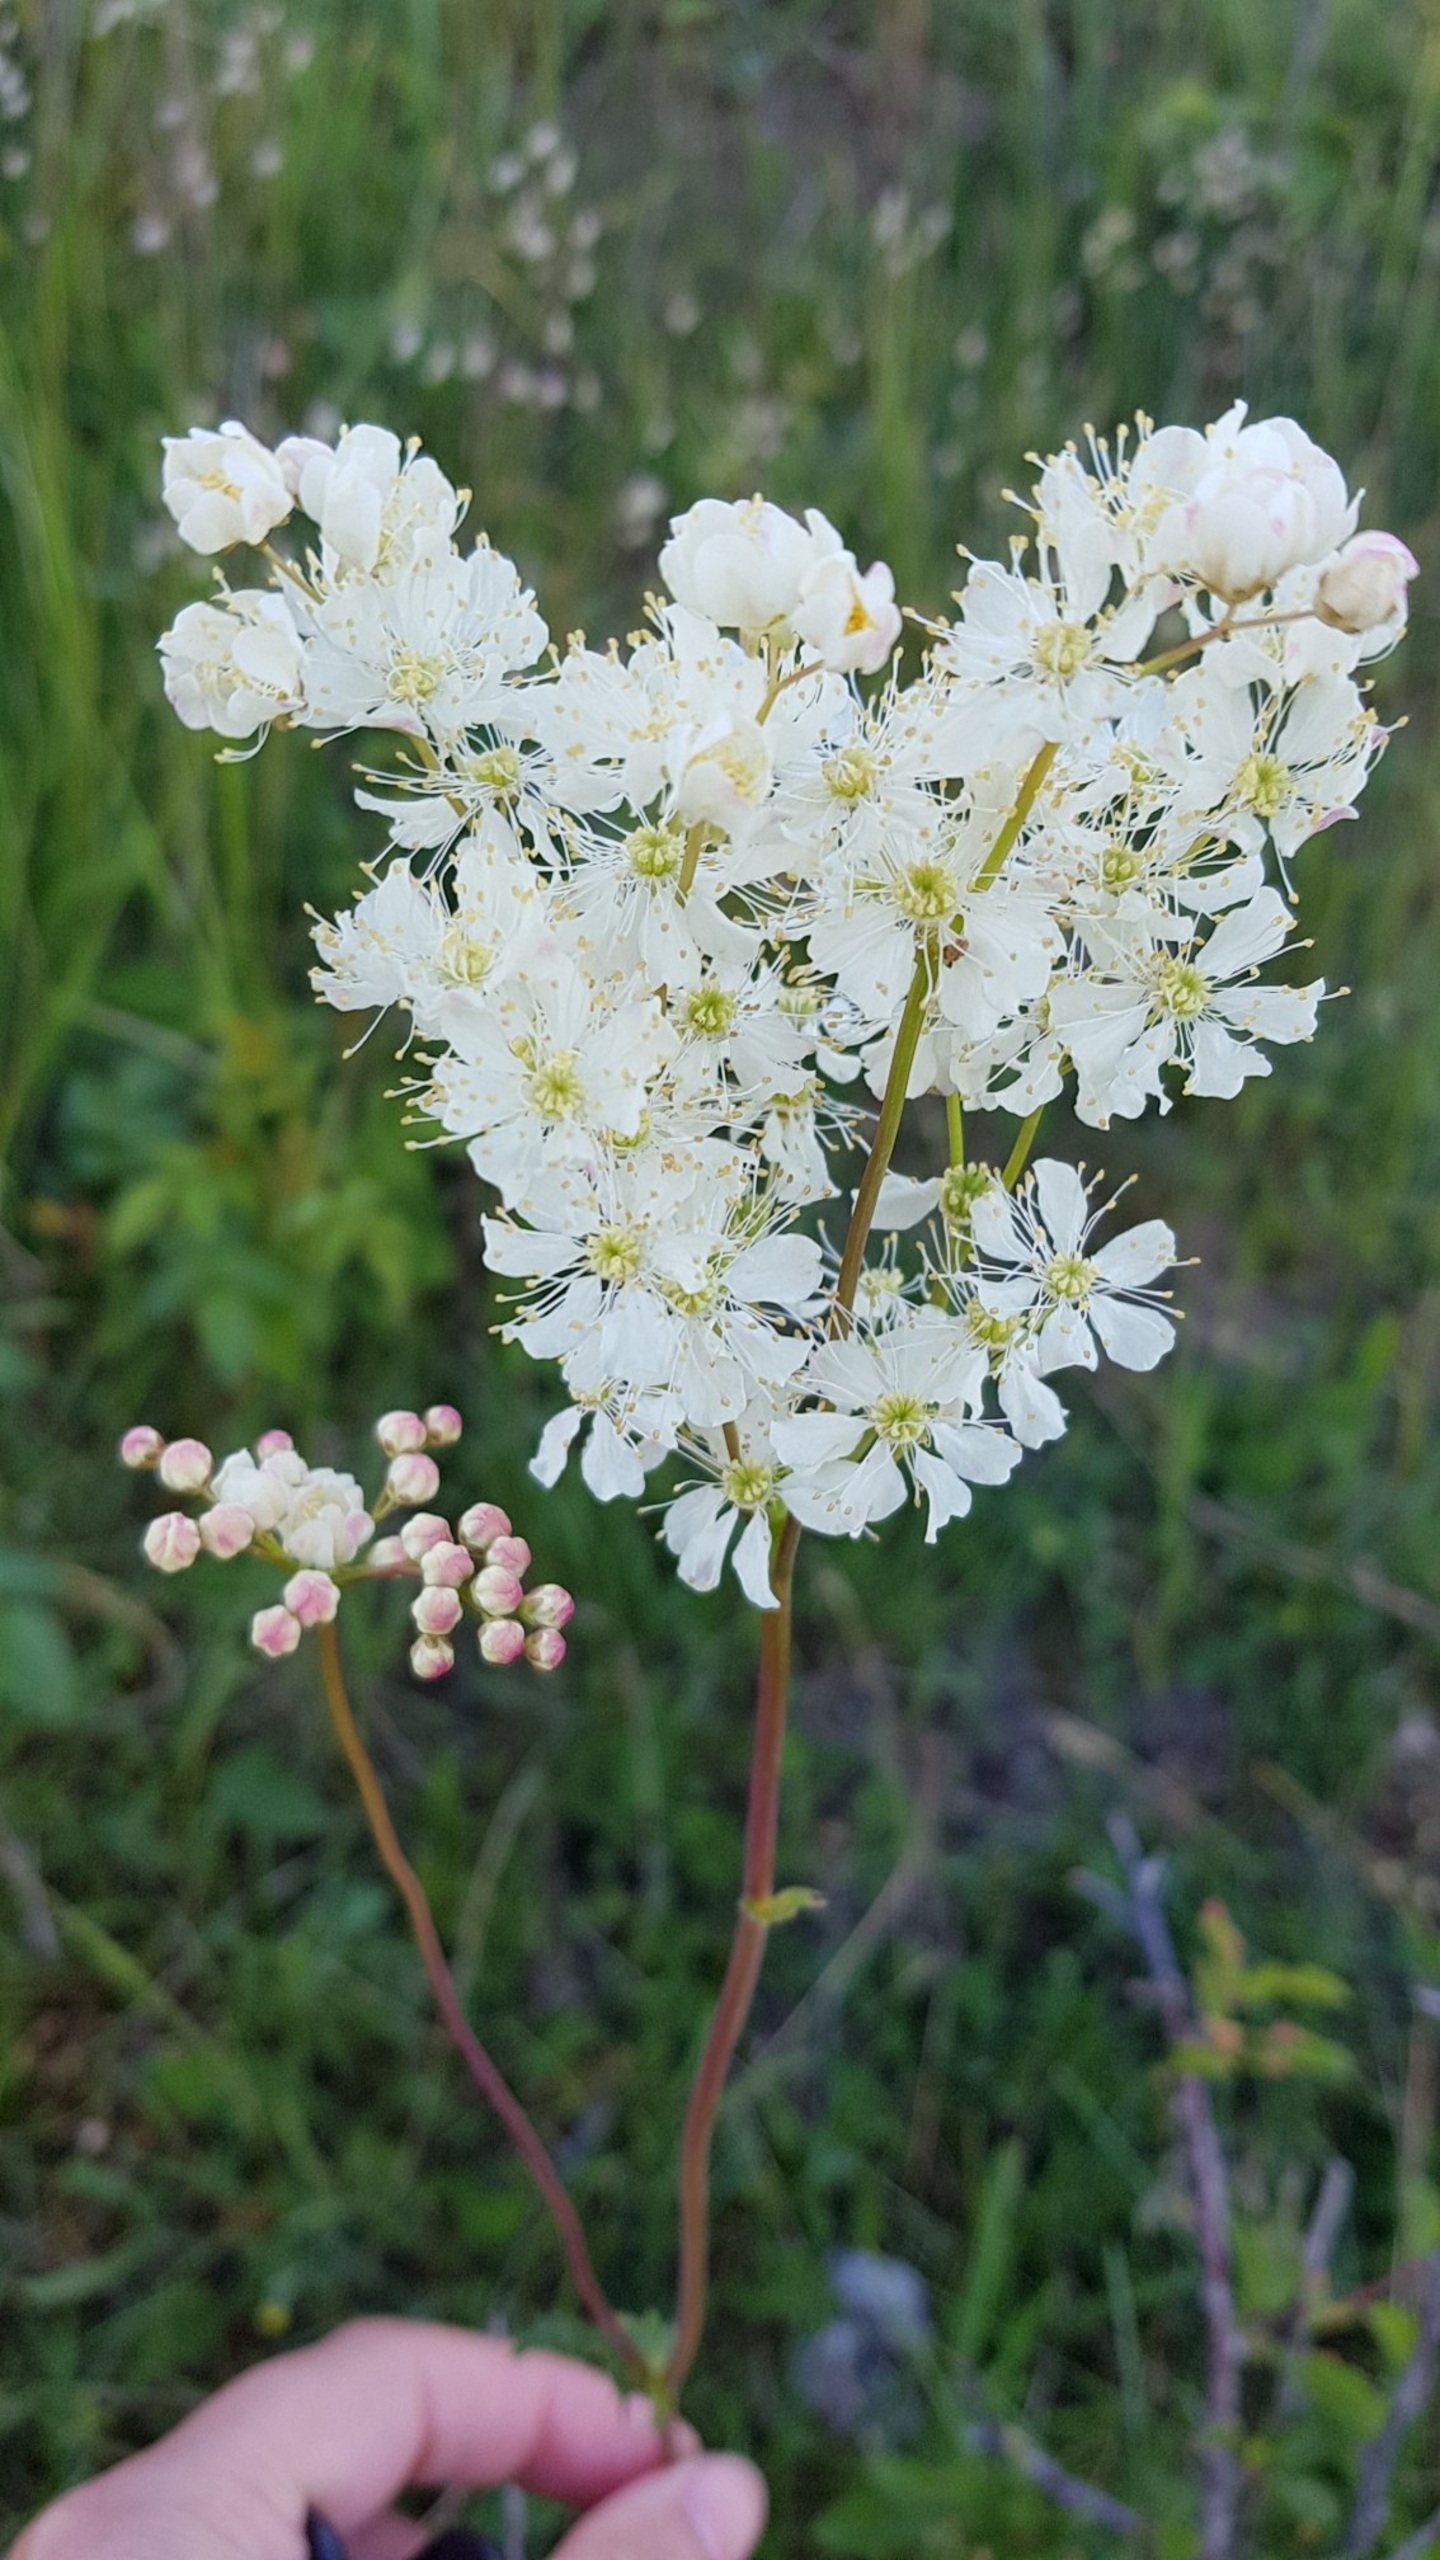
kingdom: Plantae
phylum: Tracheophyta
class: Magnoliopsida
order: Rosales
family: Rosaceae
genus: Filipendula
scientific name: Filipendula vulgaris
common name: Knoldet mjødurt
